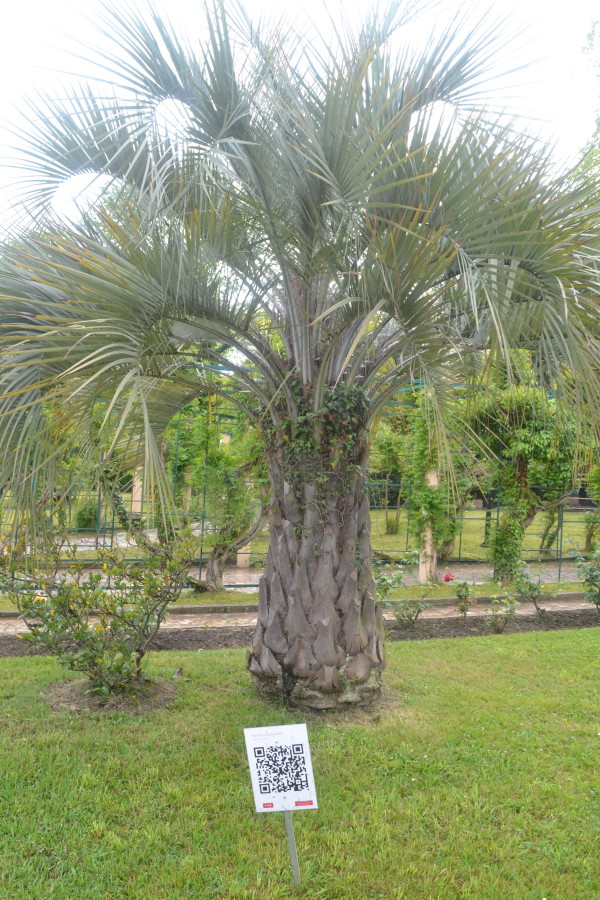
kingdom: Plantae
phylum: Tracheophyta
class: Liliopsida
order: Arecales
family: Arecaceae
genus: Butia
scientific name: Butia capitata
